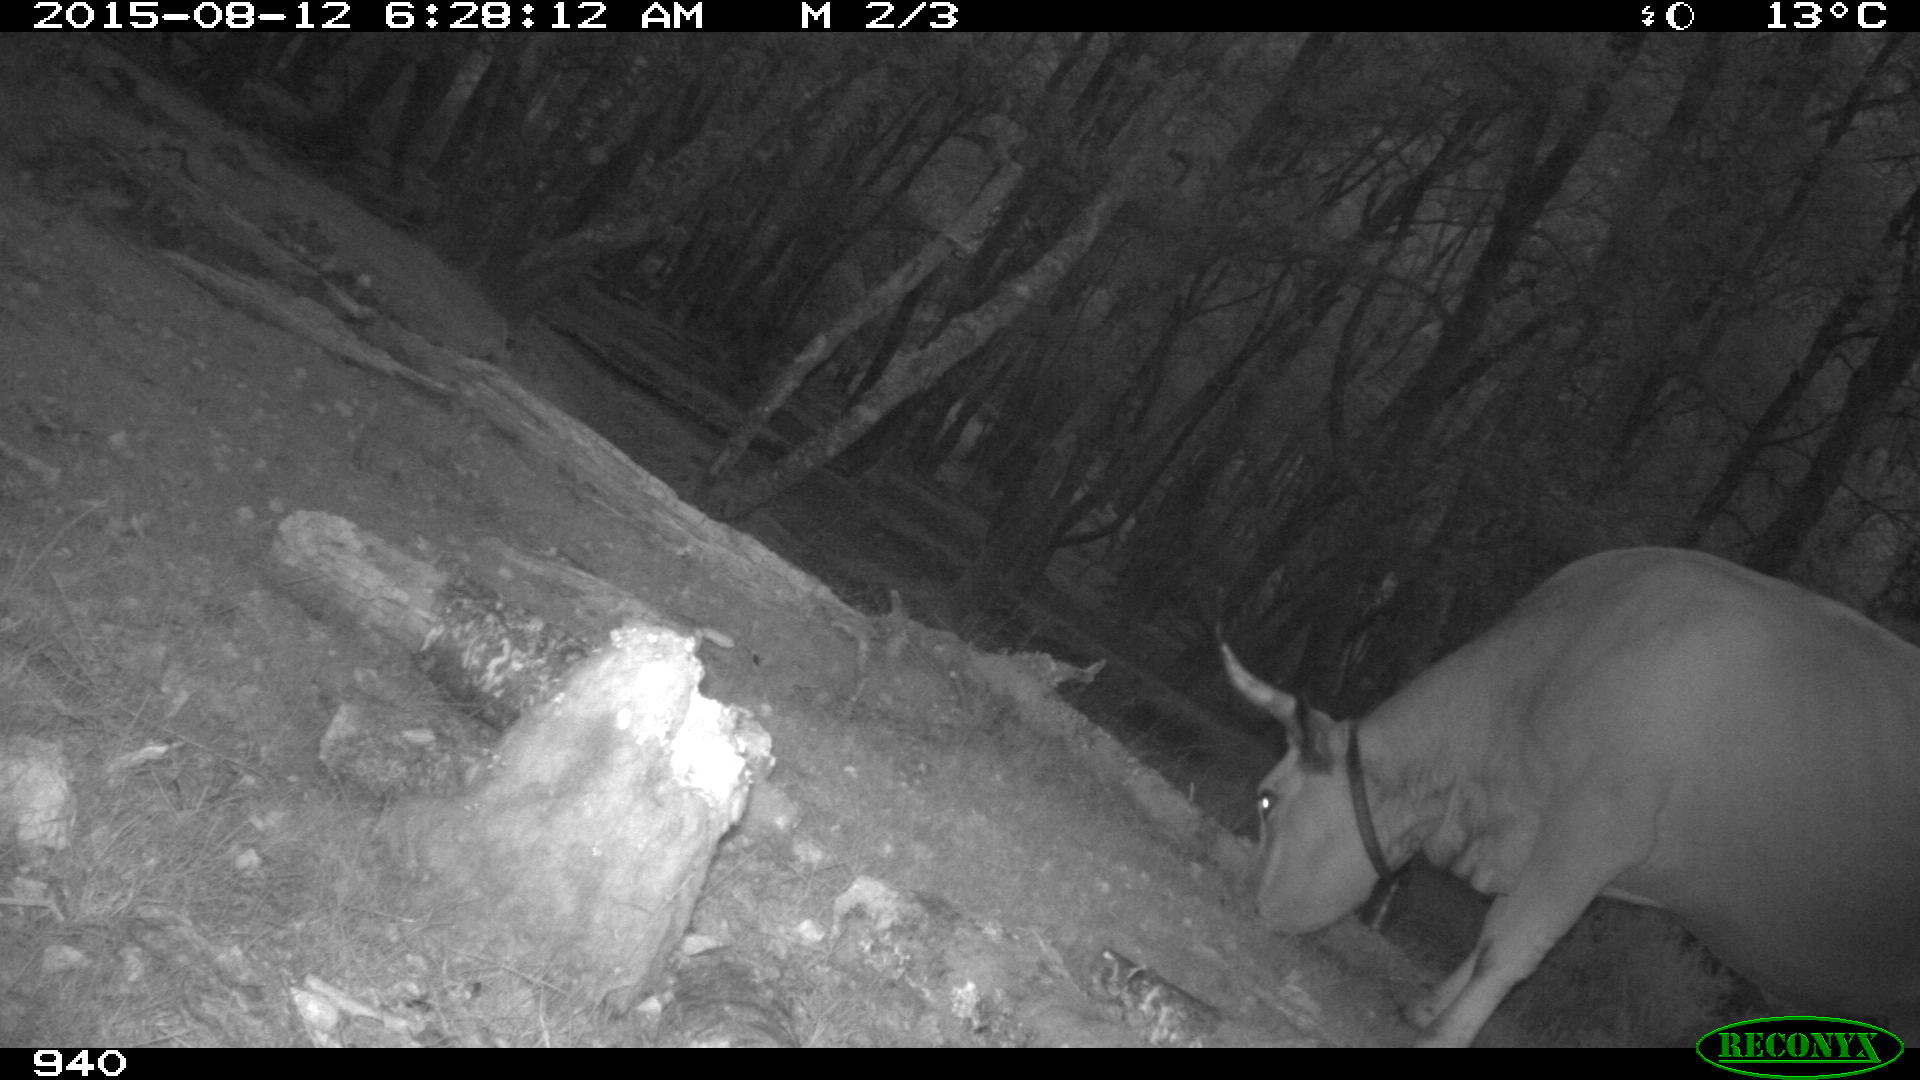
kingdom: Animalia
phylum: Chordata
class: Mammalia
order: Artiodactyla
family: Bovidae
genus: Bos
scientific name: Bos taurus
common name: Domesticated cattle
